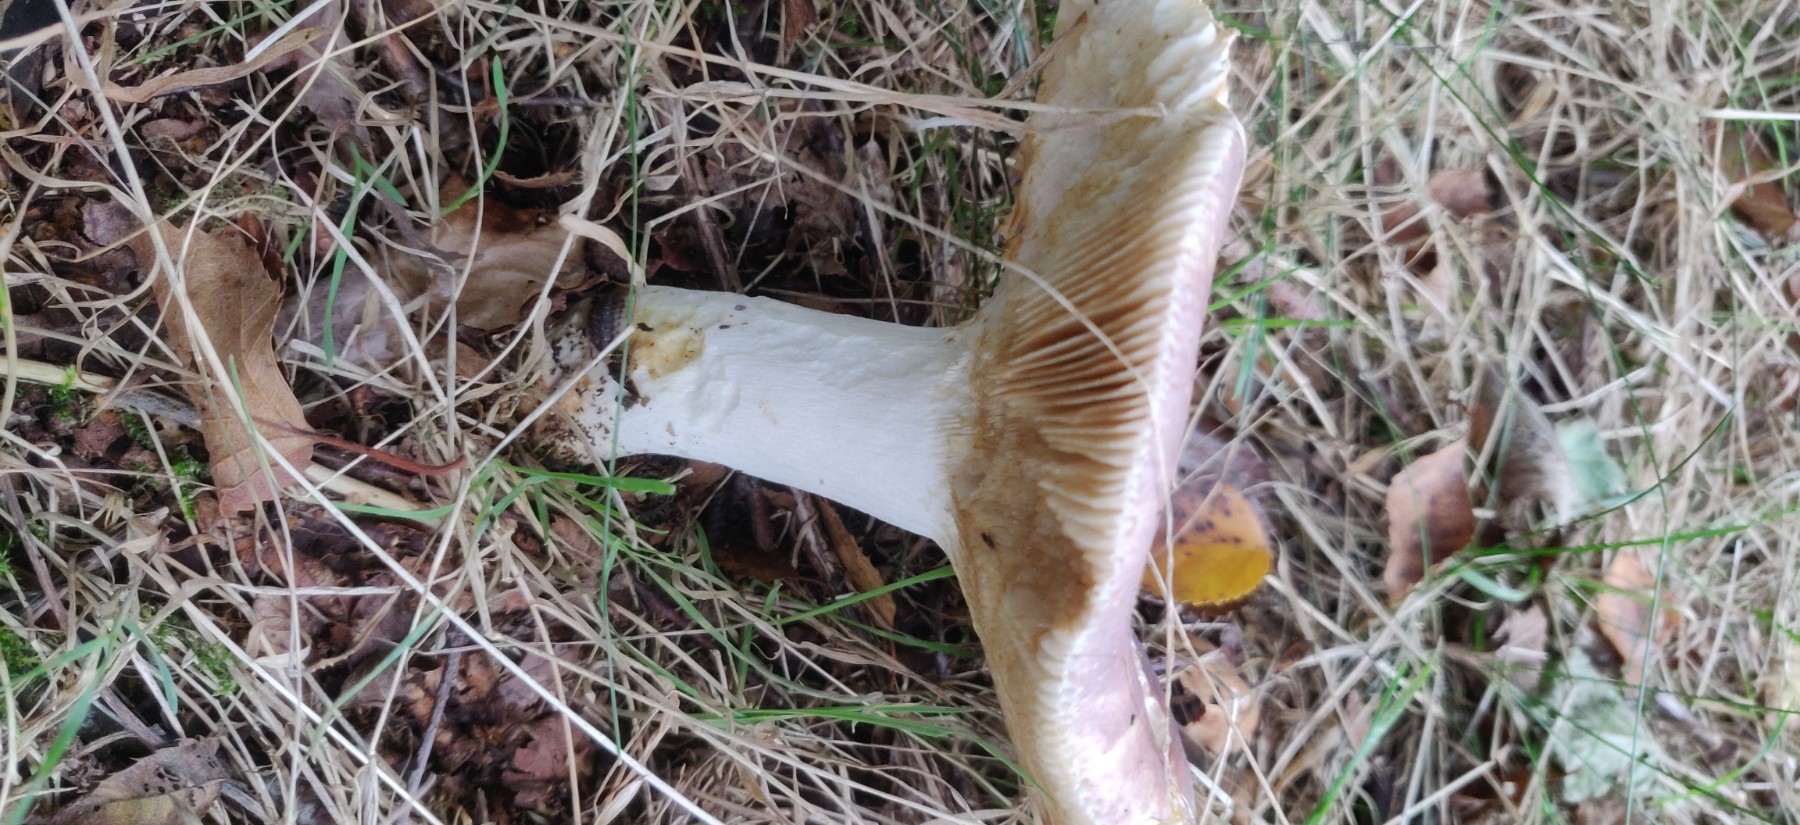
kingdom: Fungi
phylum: Basidiomycota
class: Agaricomycetes
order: Russulales
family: Russulaceae
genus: Russula
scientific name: Russula vesca
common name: spiselig skørhat
